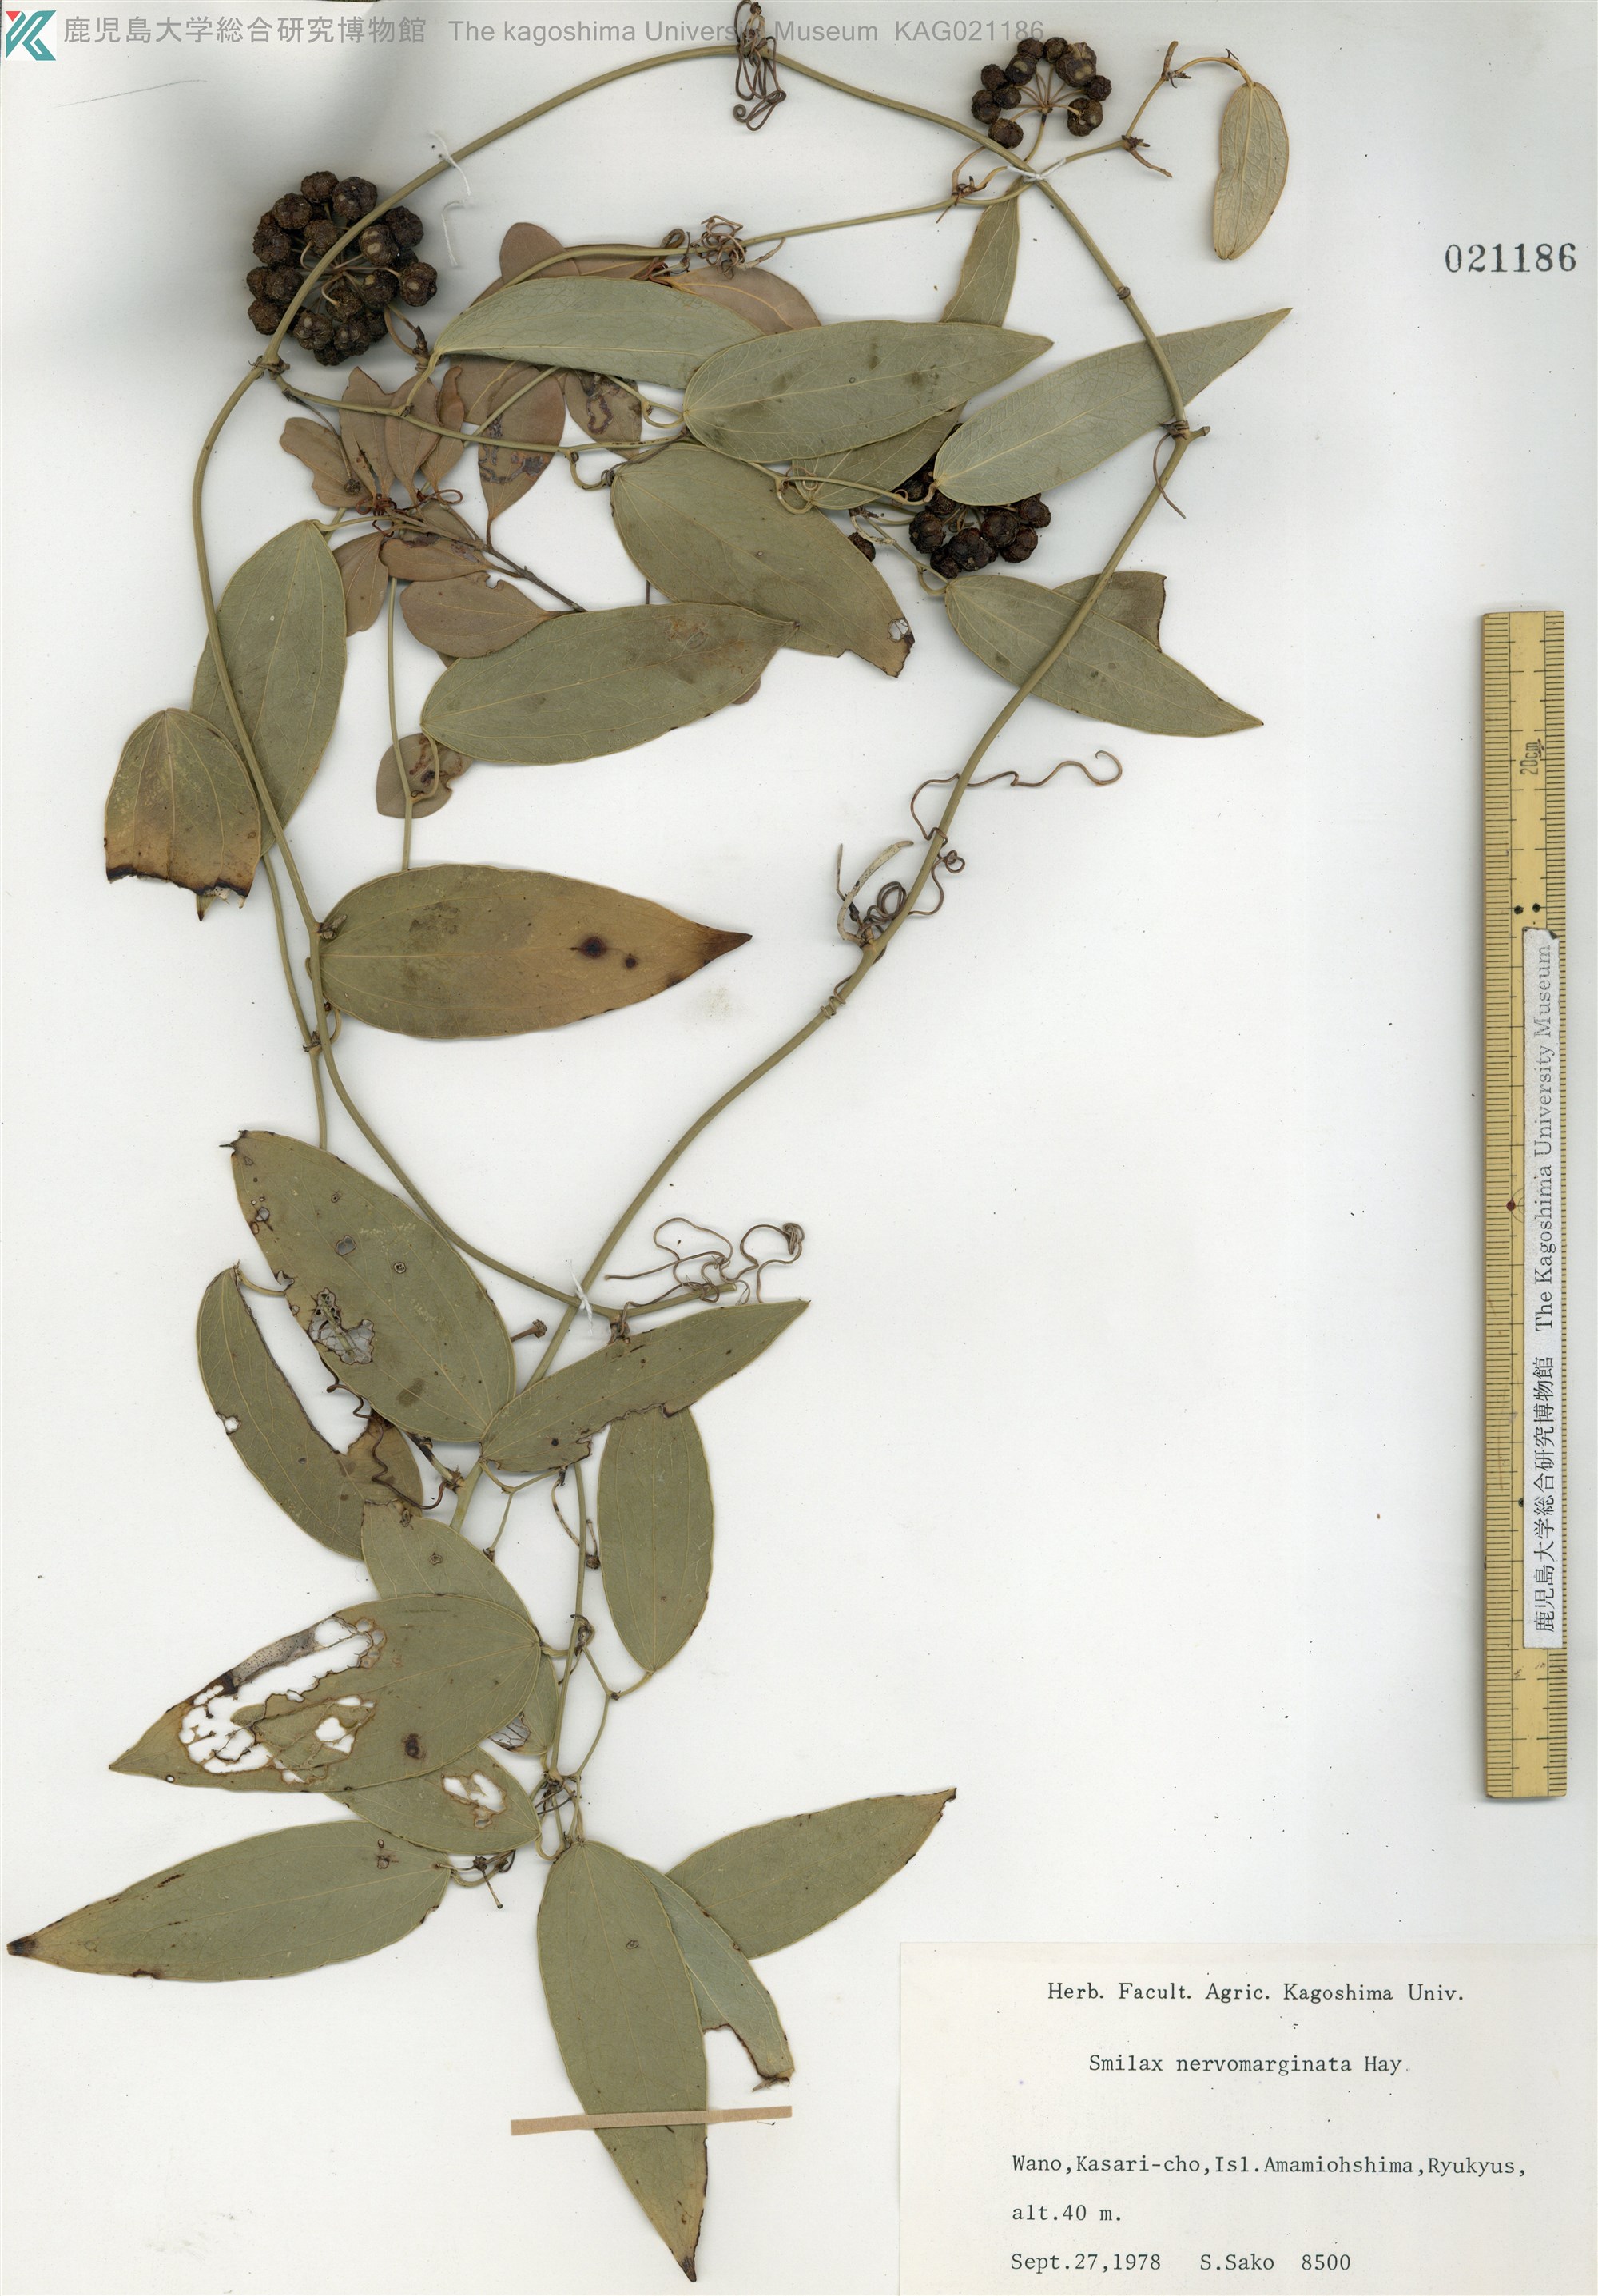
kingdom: Plantae
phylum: Tracheophyta
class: Liliopsida
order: Liliales
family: Smilacaceae
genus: Smilax
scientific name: Smilax nervomarginata
